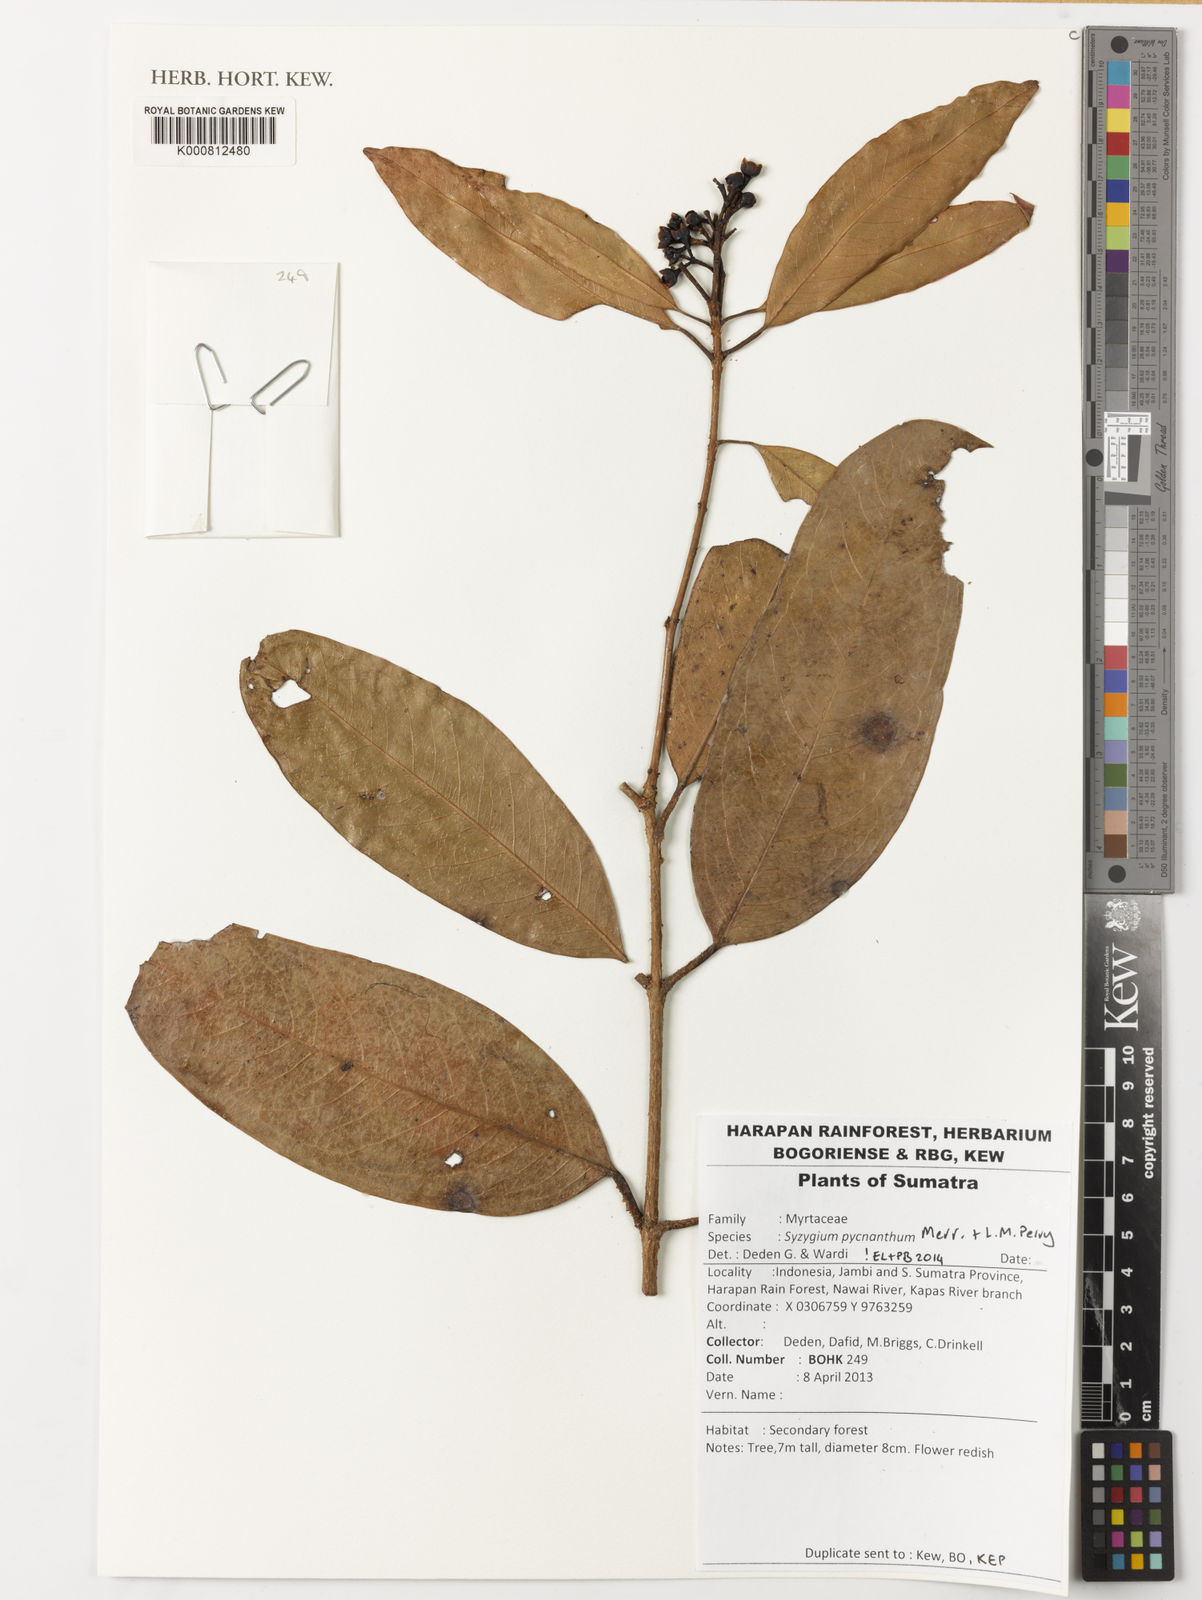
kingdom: Plantae
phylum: Tracheophyta
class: Magnoliopsida
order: Myrtales
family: Myrtaceae
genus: Syzygium
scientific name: Syzygium pycnanthum
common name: Wild rose
